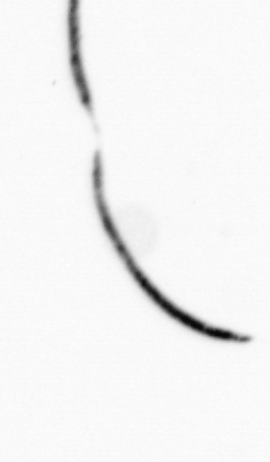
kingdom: Bacteria
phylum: Cyanobacteria
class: Cyanobacteriia
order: Cyanobacteriales
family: Microcoleaceae
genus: Trichodesmium
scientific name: Trichodesmium
